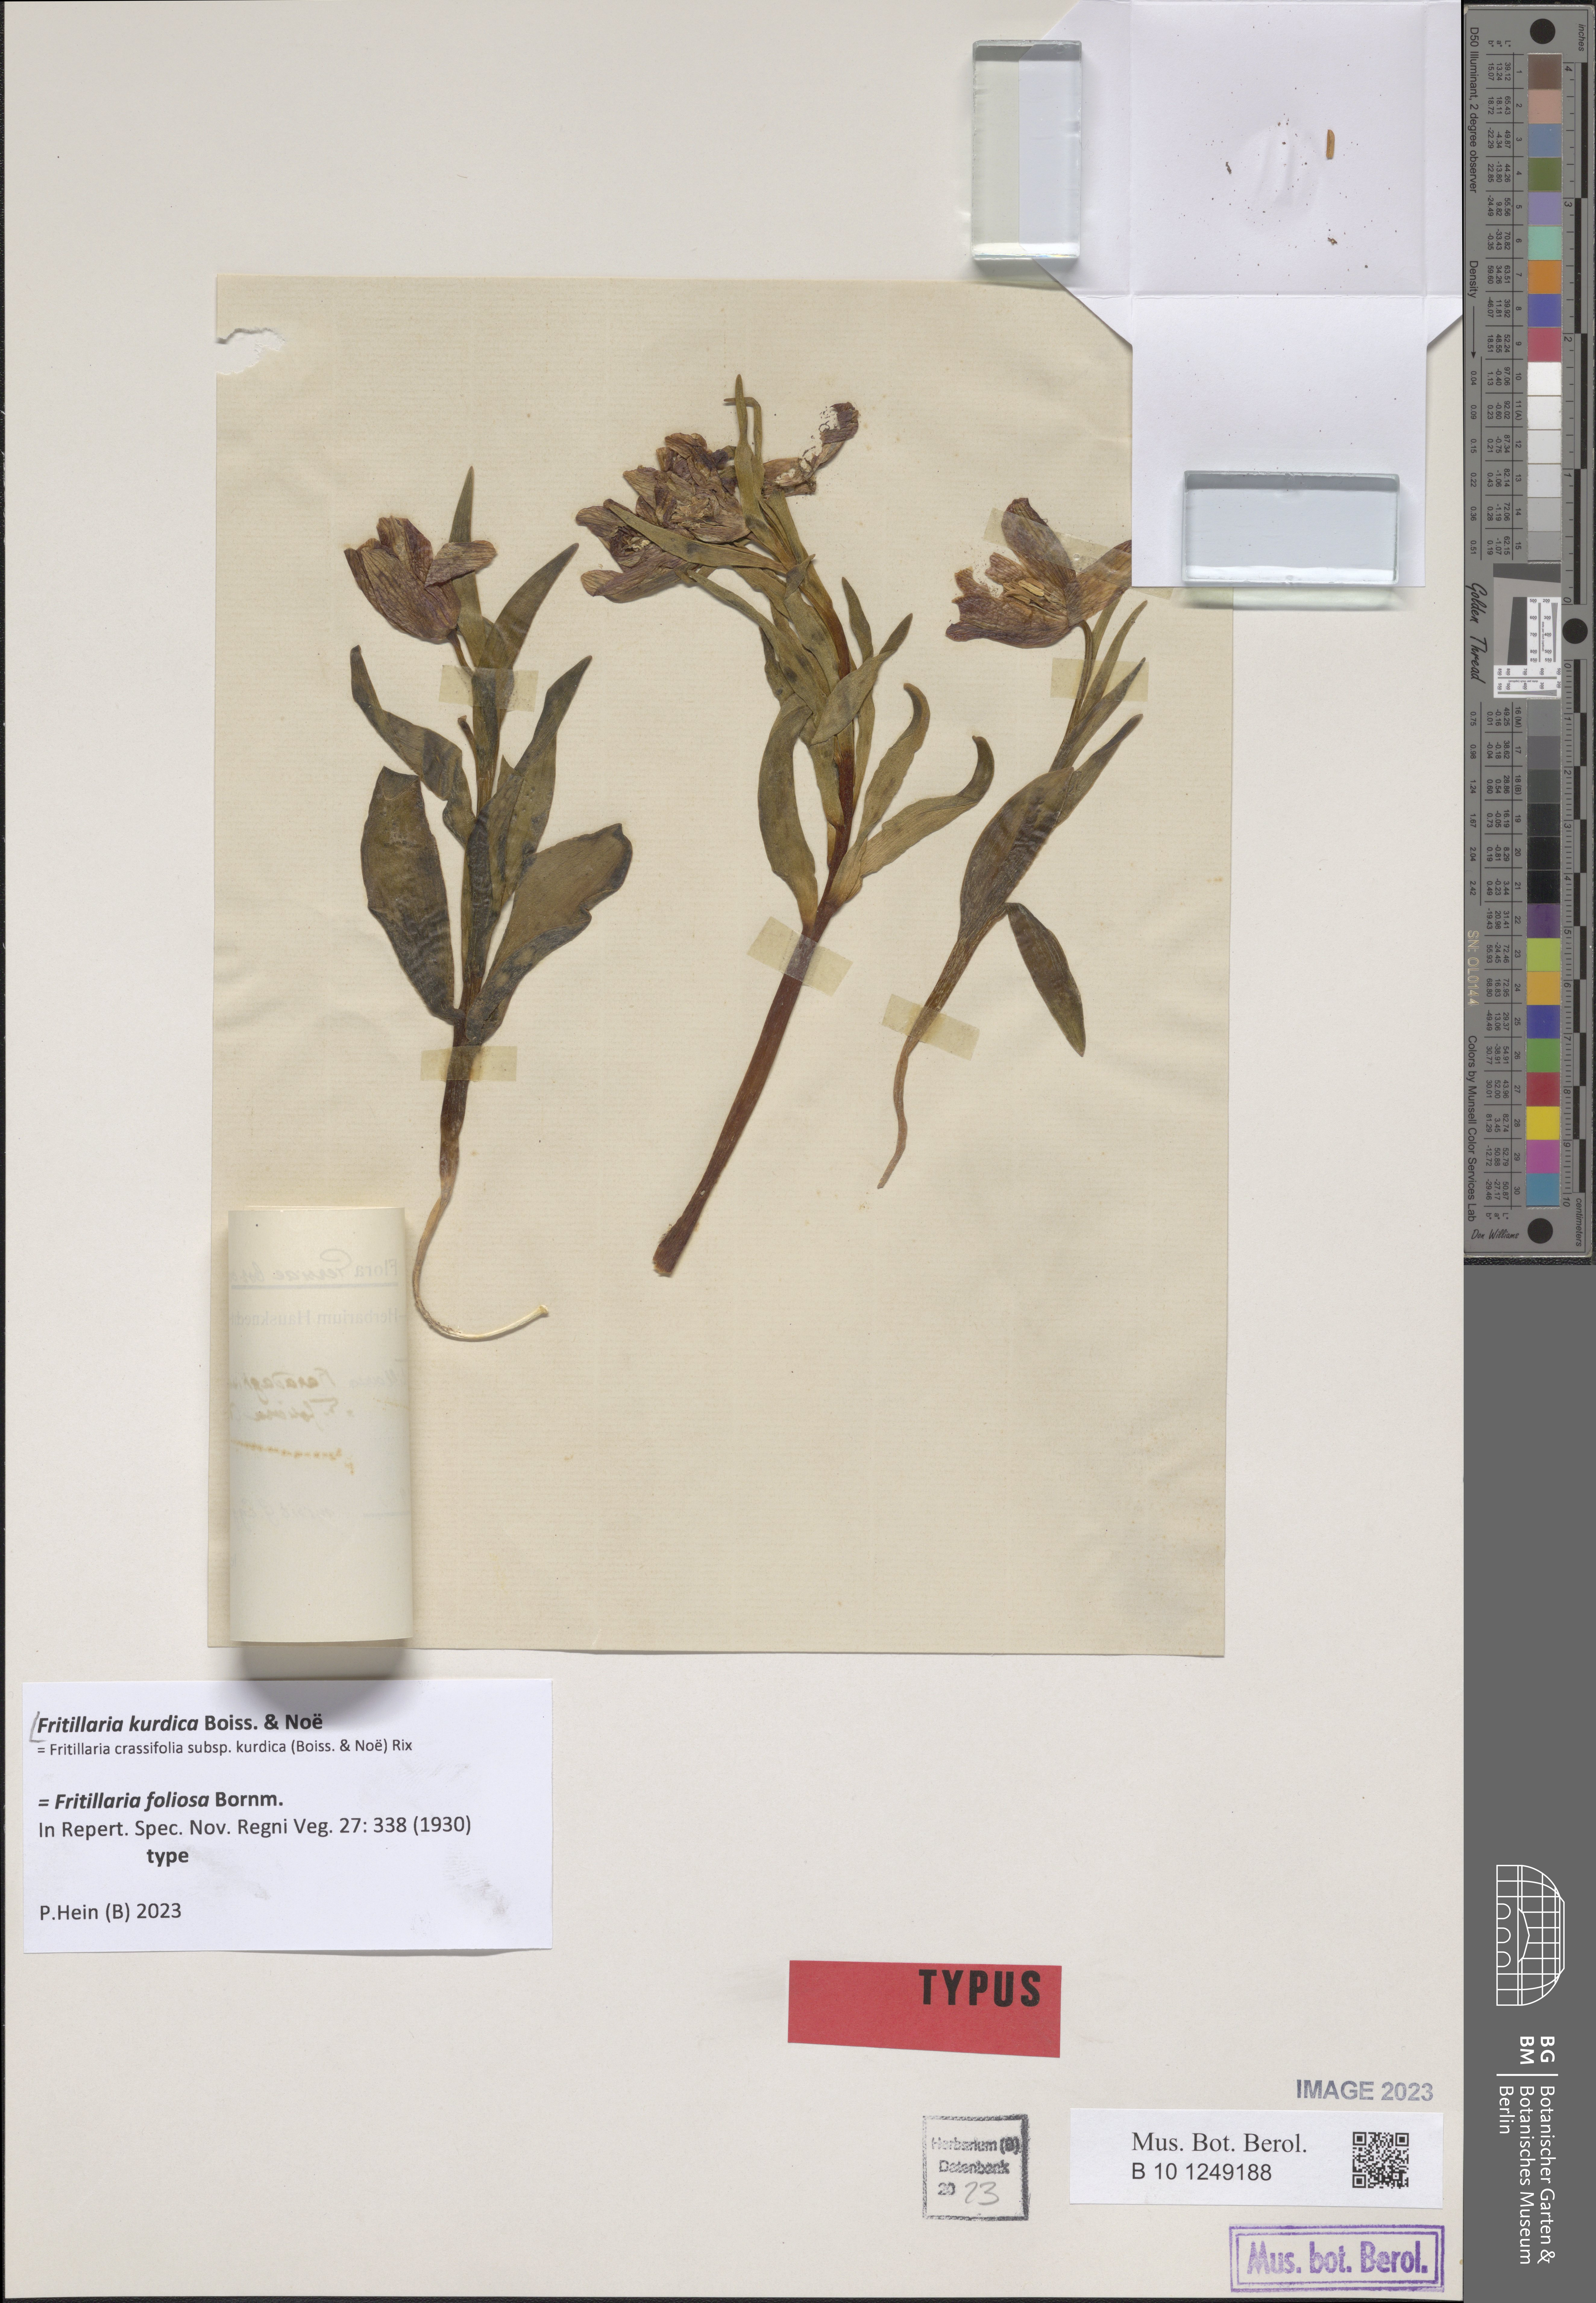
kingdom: Plantae
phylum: Tracheophyta
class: Liliopsida
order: Liliales
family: Liliaceae
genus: Fritillaria
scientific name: Fritillaria kurdica
